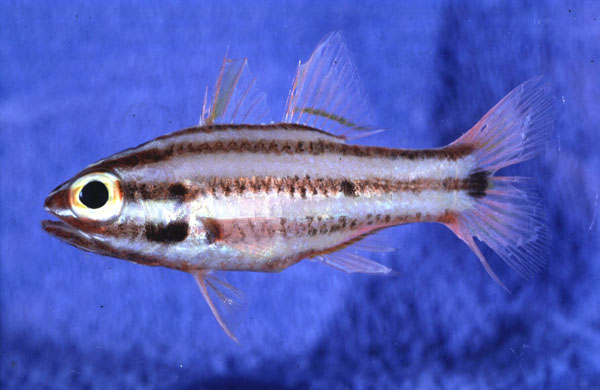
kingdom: Animalia
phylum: Chordata
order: Perciformes
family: Apogonidae
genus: Ostorhinchus
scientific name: Ostorhinchus angustatus
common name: Narrow-striped cardinalfish
